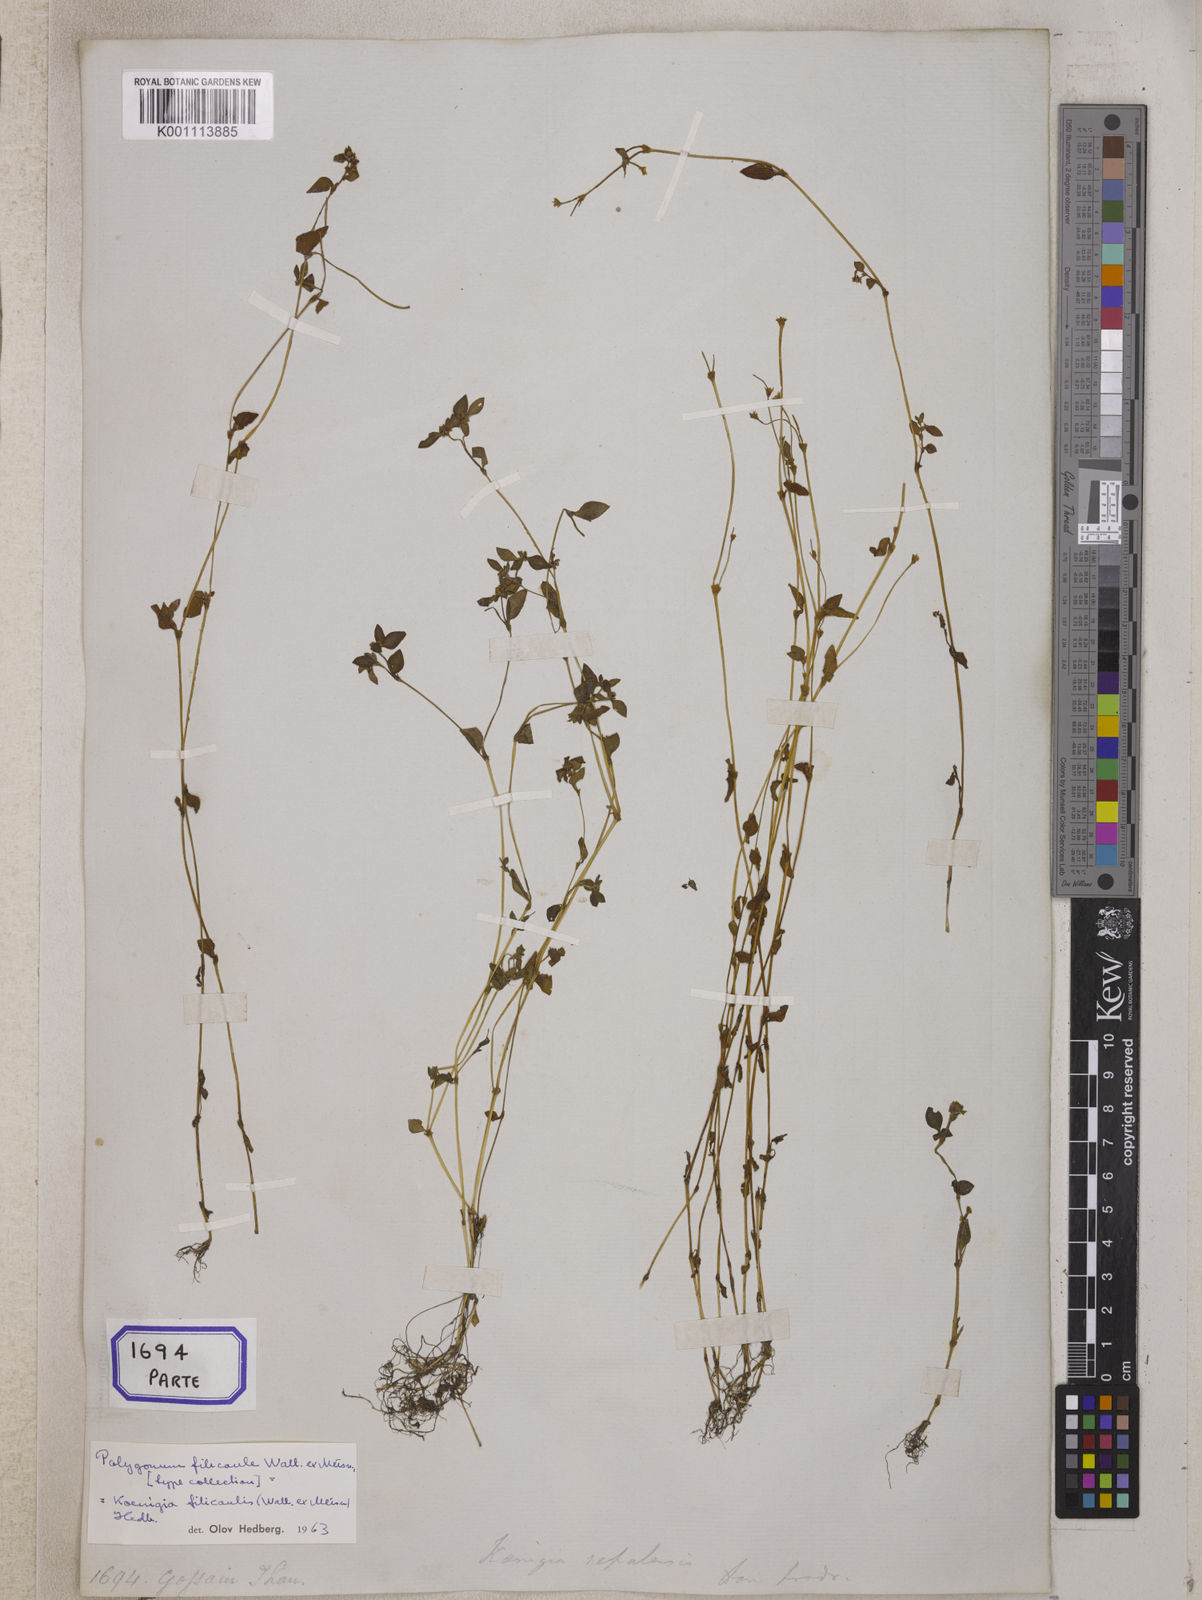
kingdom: Plantae
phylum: Tracheophyta
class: Magnoliopsida
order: Caryophyllales
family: Polygonaceae
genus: Polygonum
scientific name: Polygonum
